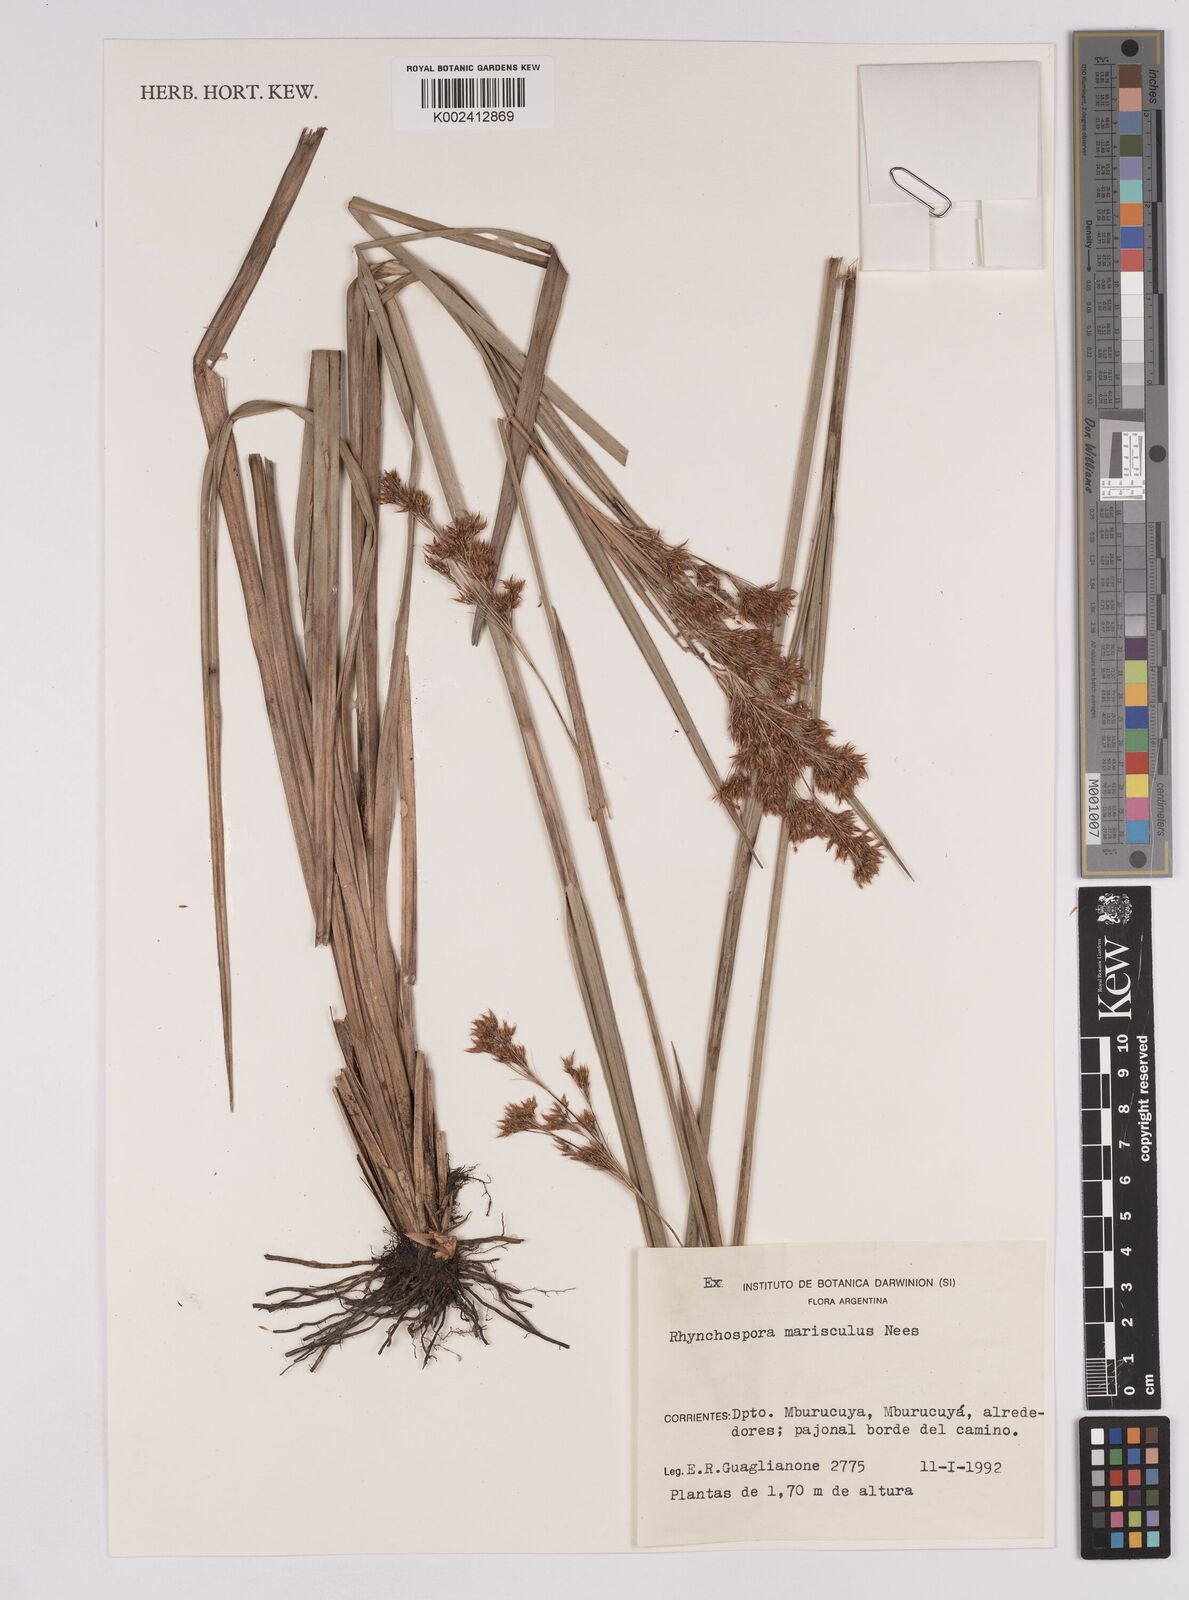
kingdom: Plantae
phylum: Tracheophyta
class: Liliopsida
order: Poales
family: Cyperaceae
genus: Rhynchospora
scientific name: Rhynchospora marisculus
